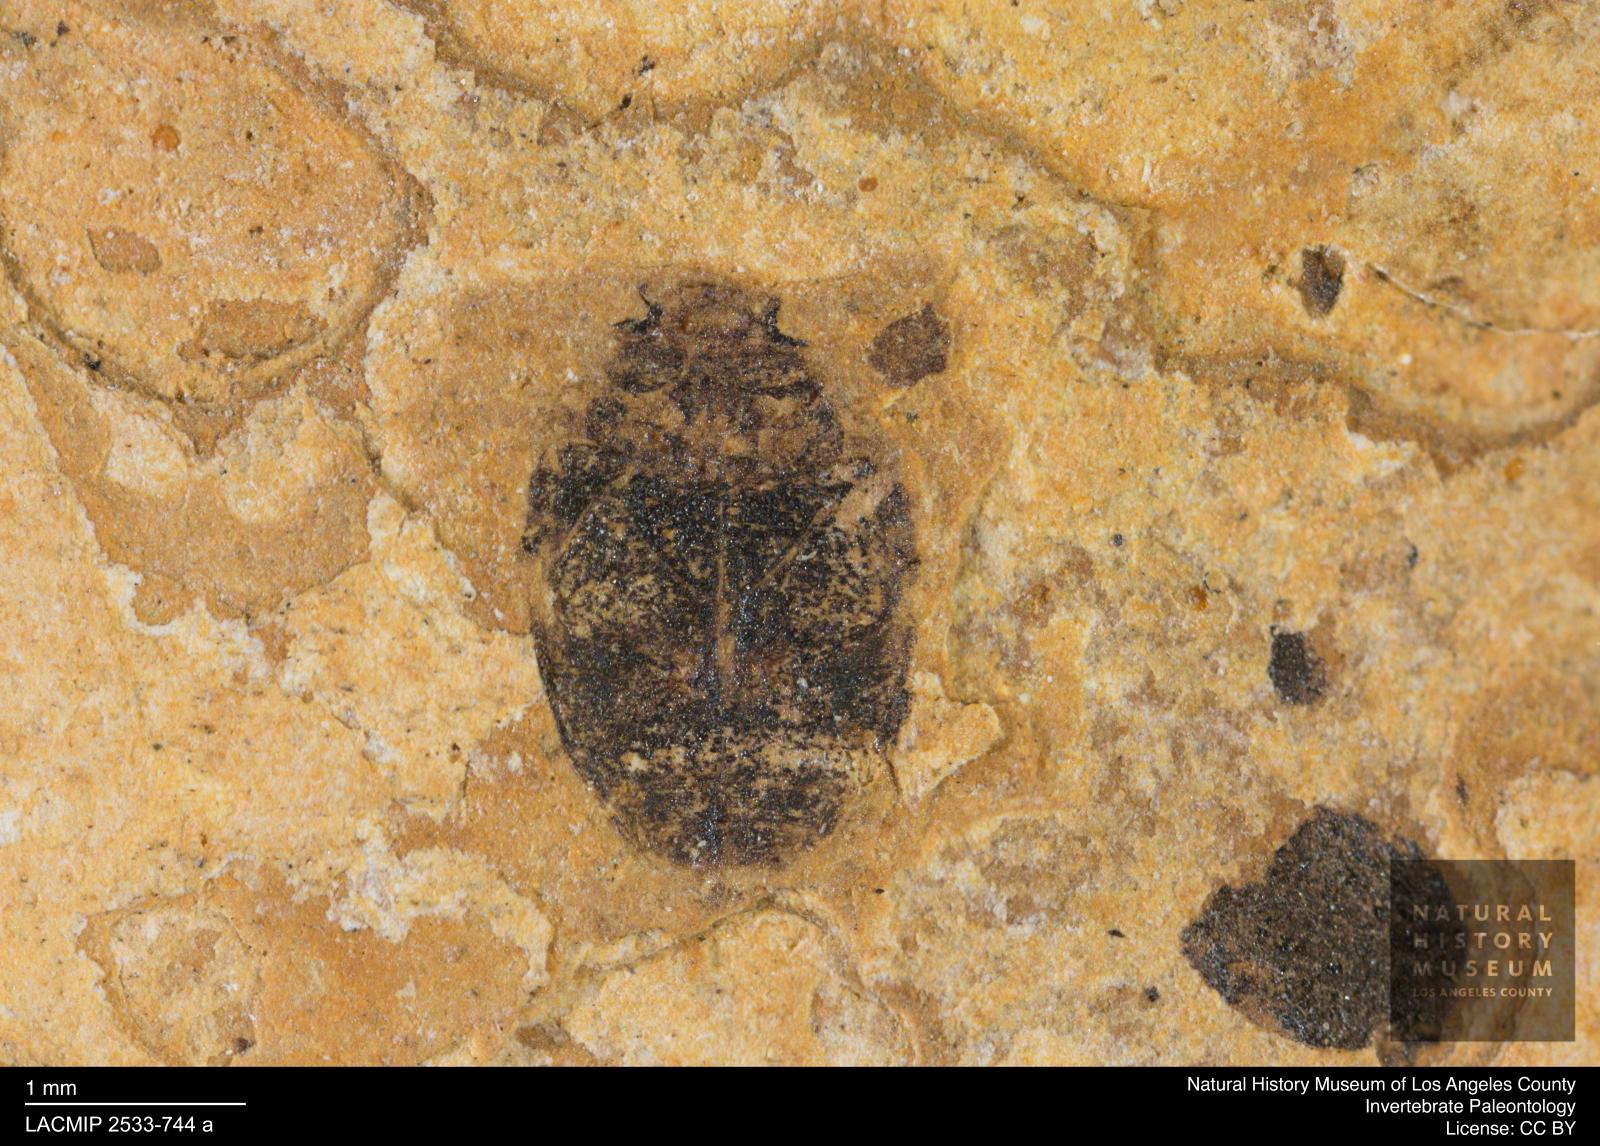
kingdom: Animalia
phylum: Arthropoda
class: Insecta
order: Coleoptera
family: Dytiscidae
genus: Oreodytes
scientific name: Oreodytes cryptolineatus
